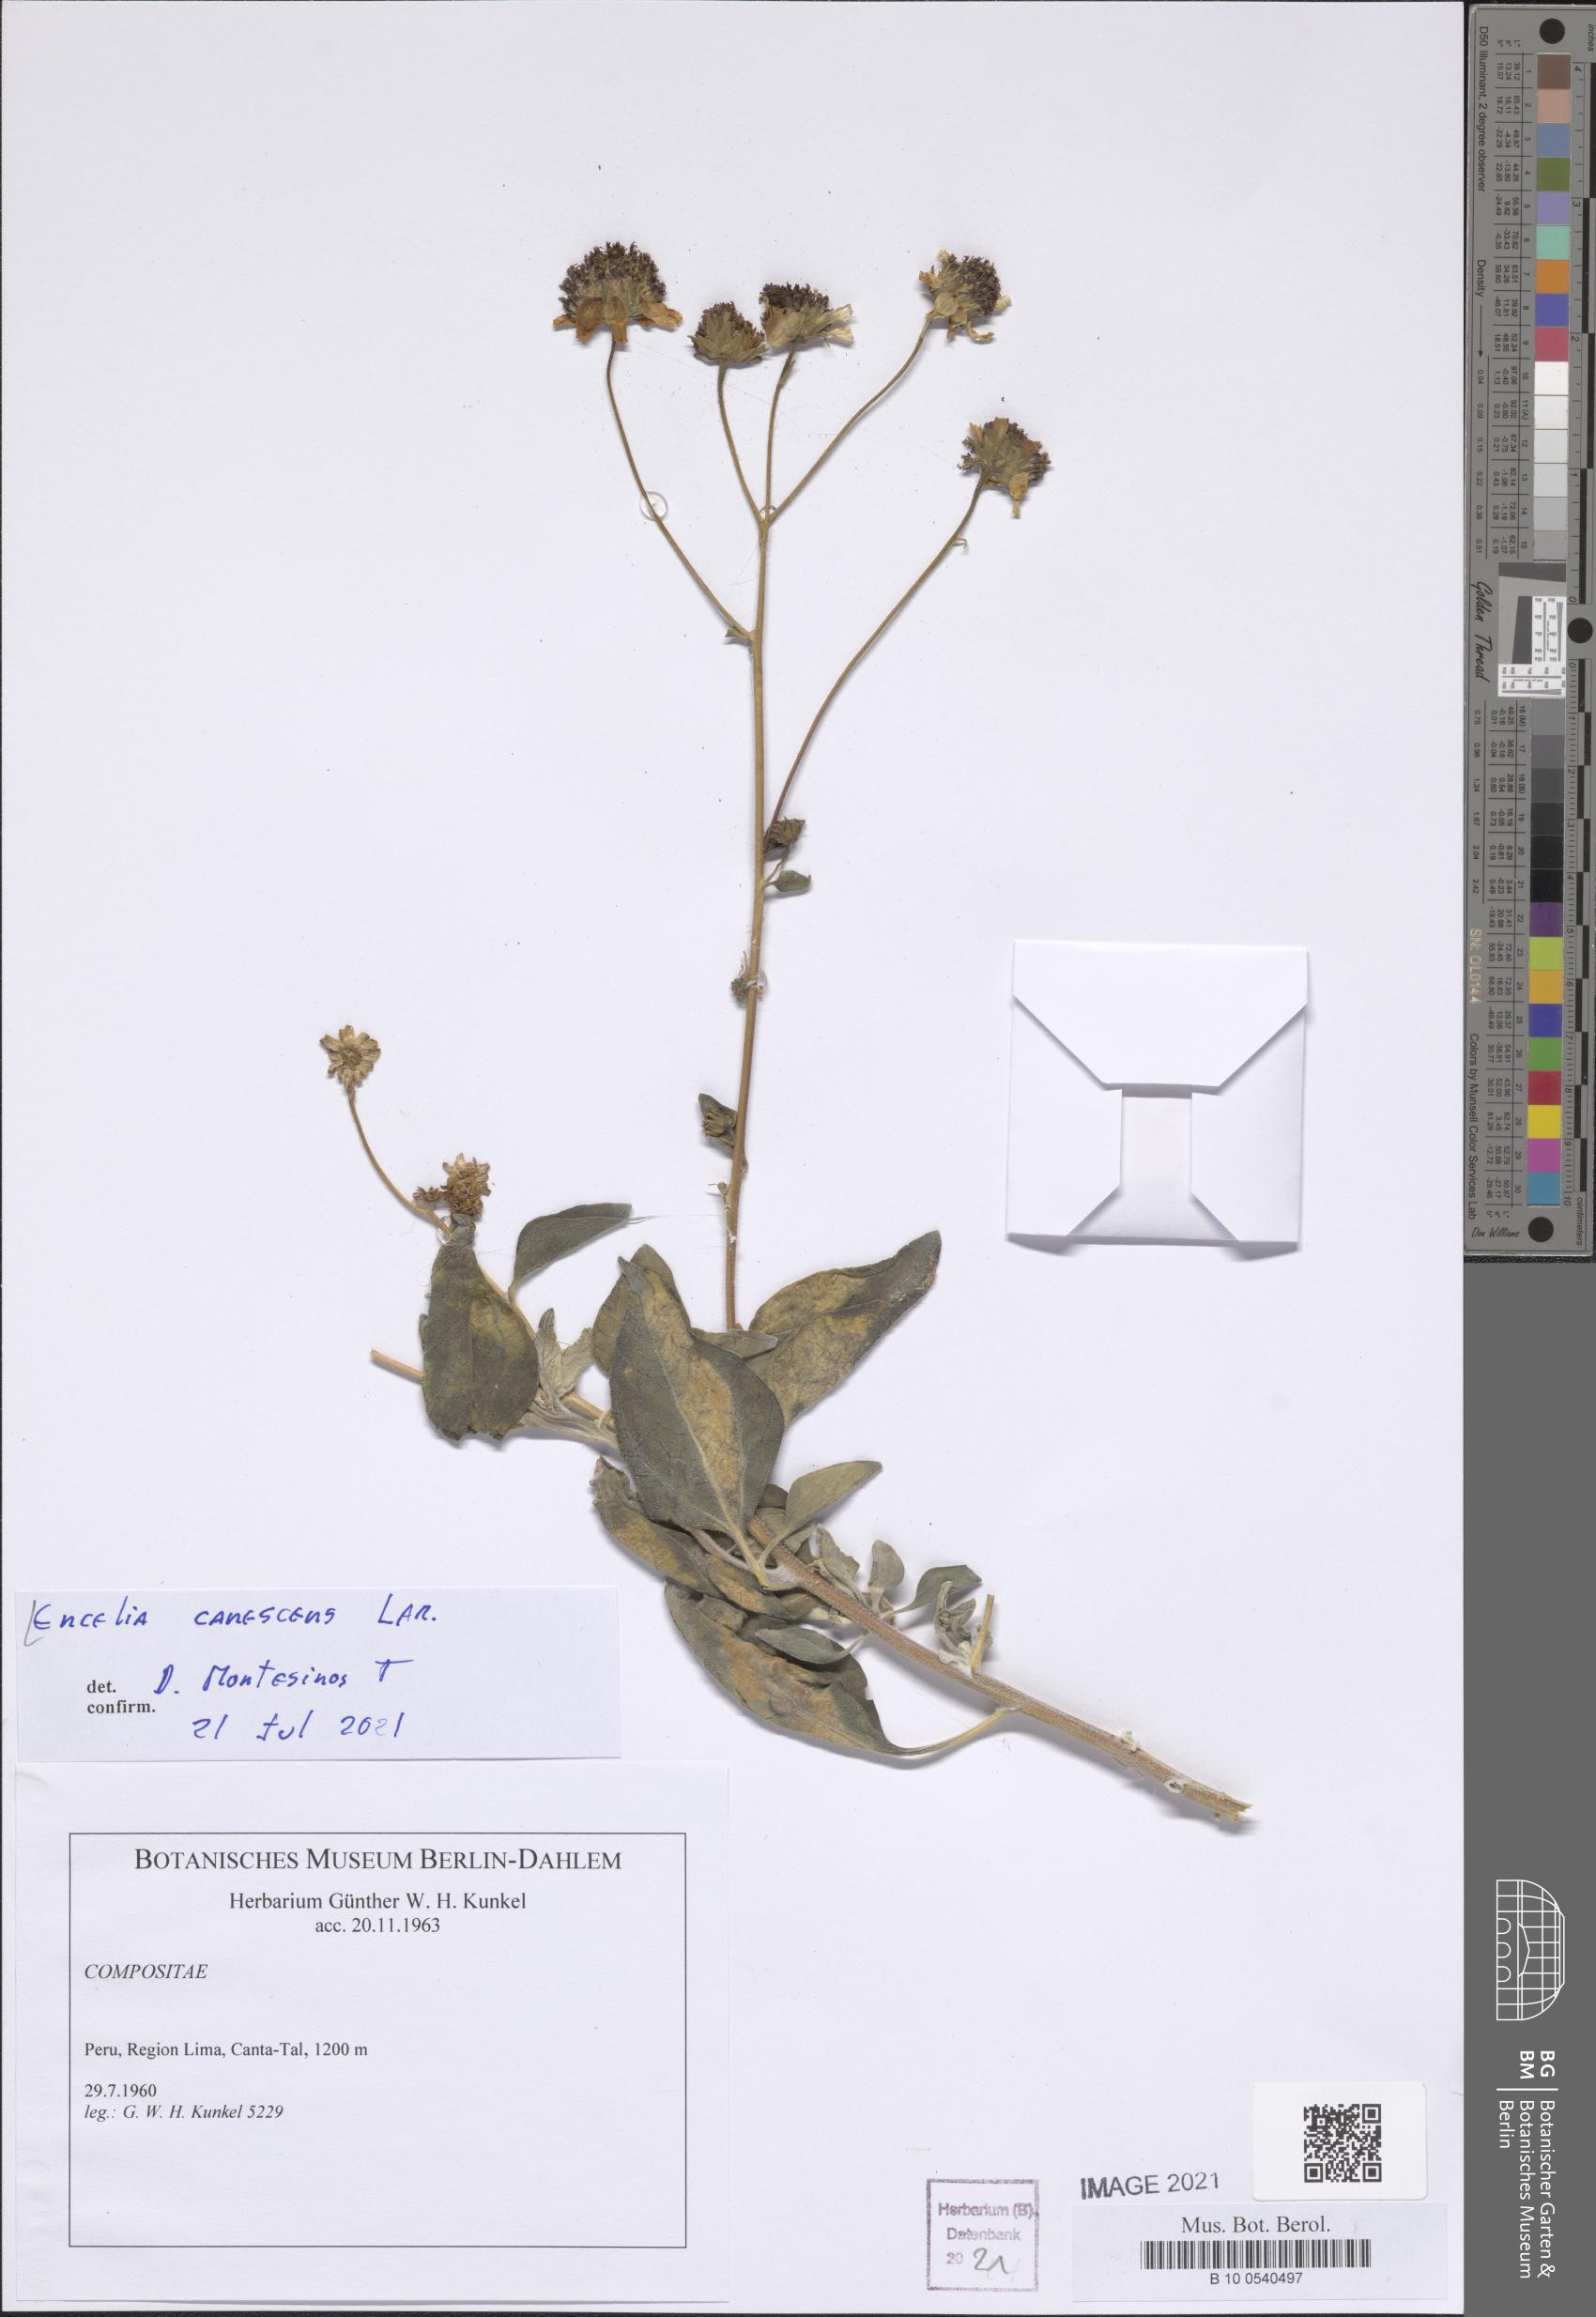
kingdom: Plantae
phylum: Tracheophyta
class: Magnoliopsida
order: Asterales
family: Asteraceae
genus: Encelia
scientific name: Encelia canescens
